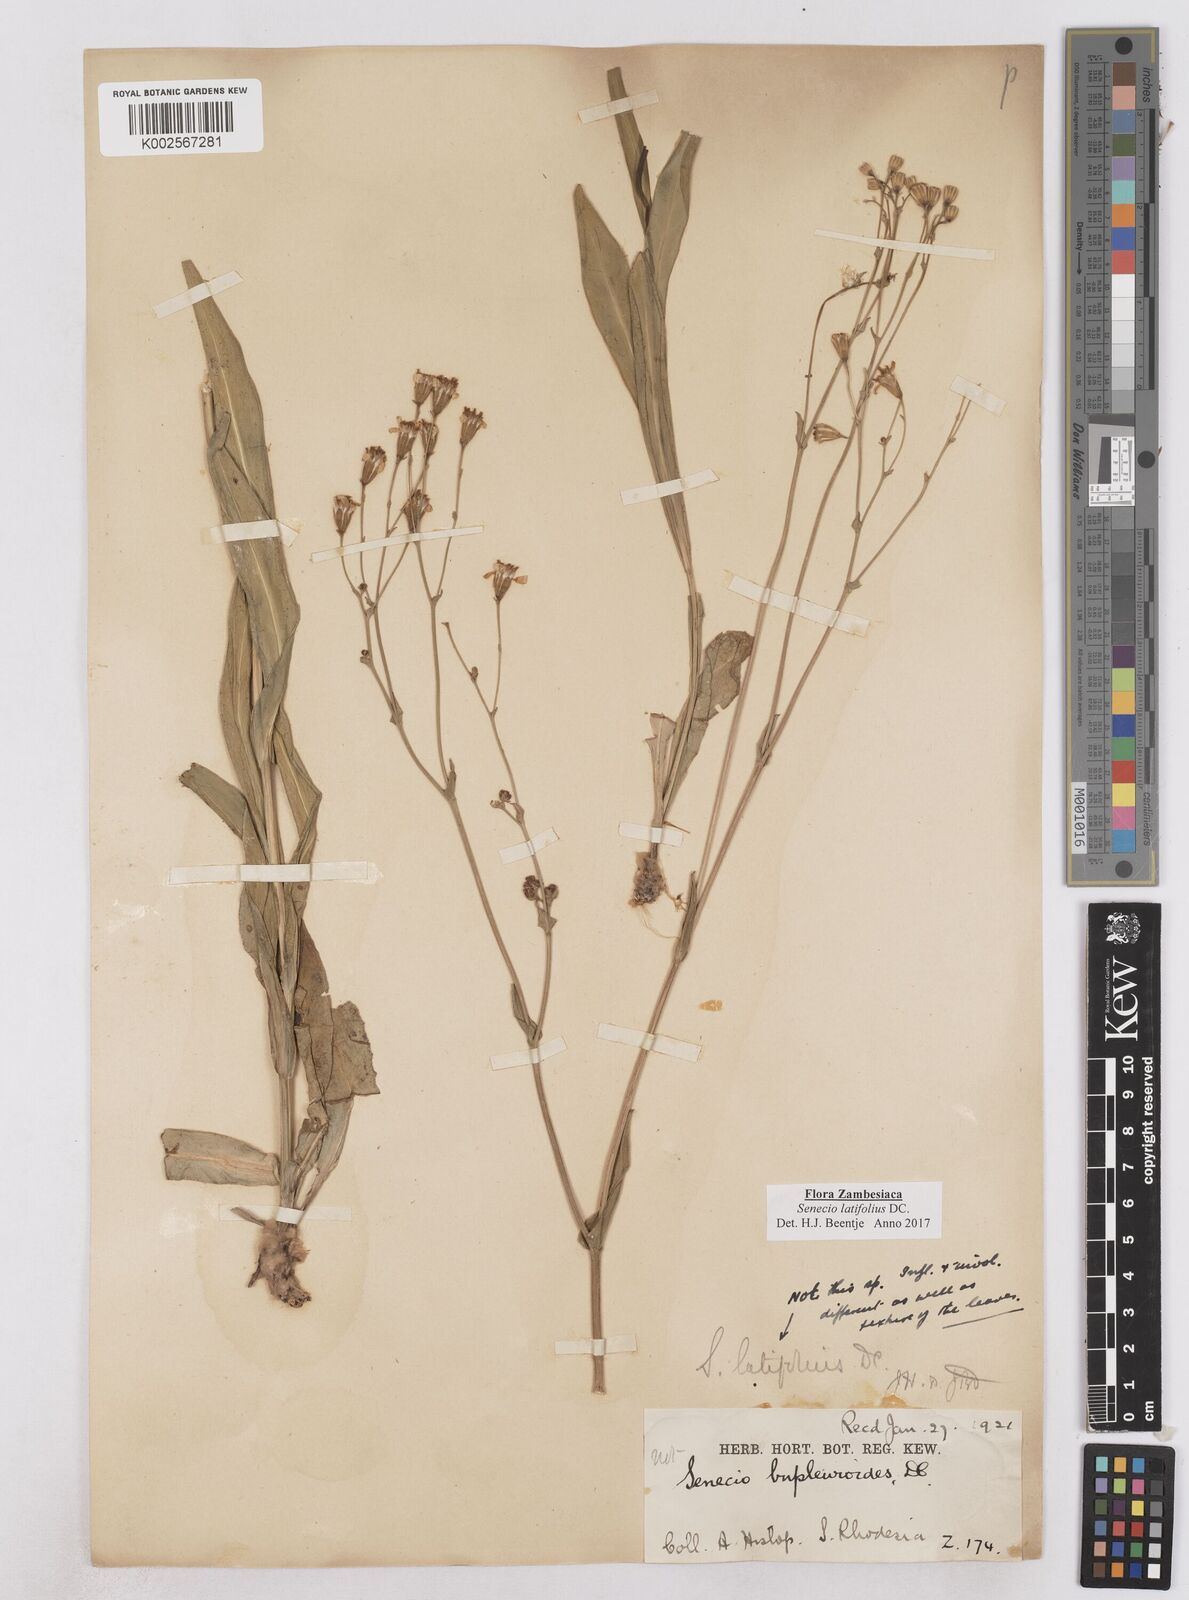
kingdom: Plantae
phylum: Tracheophyta
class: Magnoliopsida
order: Asterales
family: Asteraceae
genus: Senecio
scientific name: Senecio latifolius
